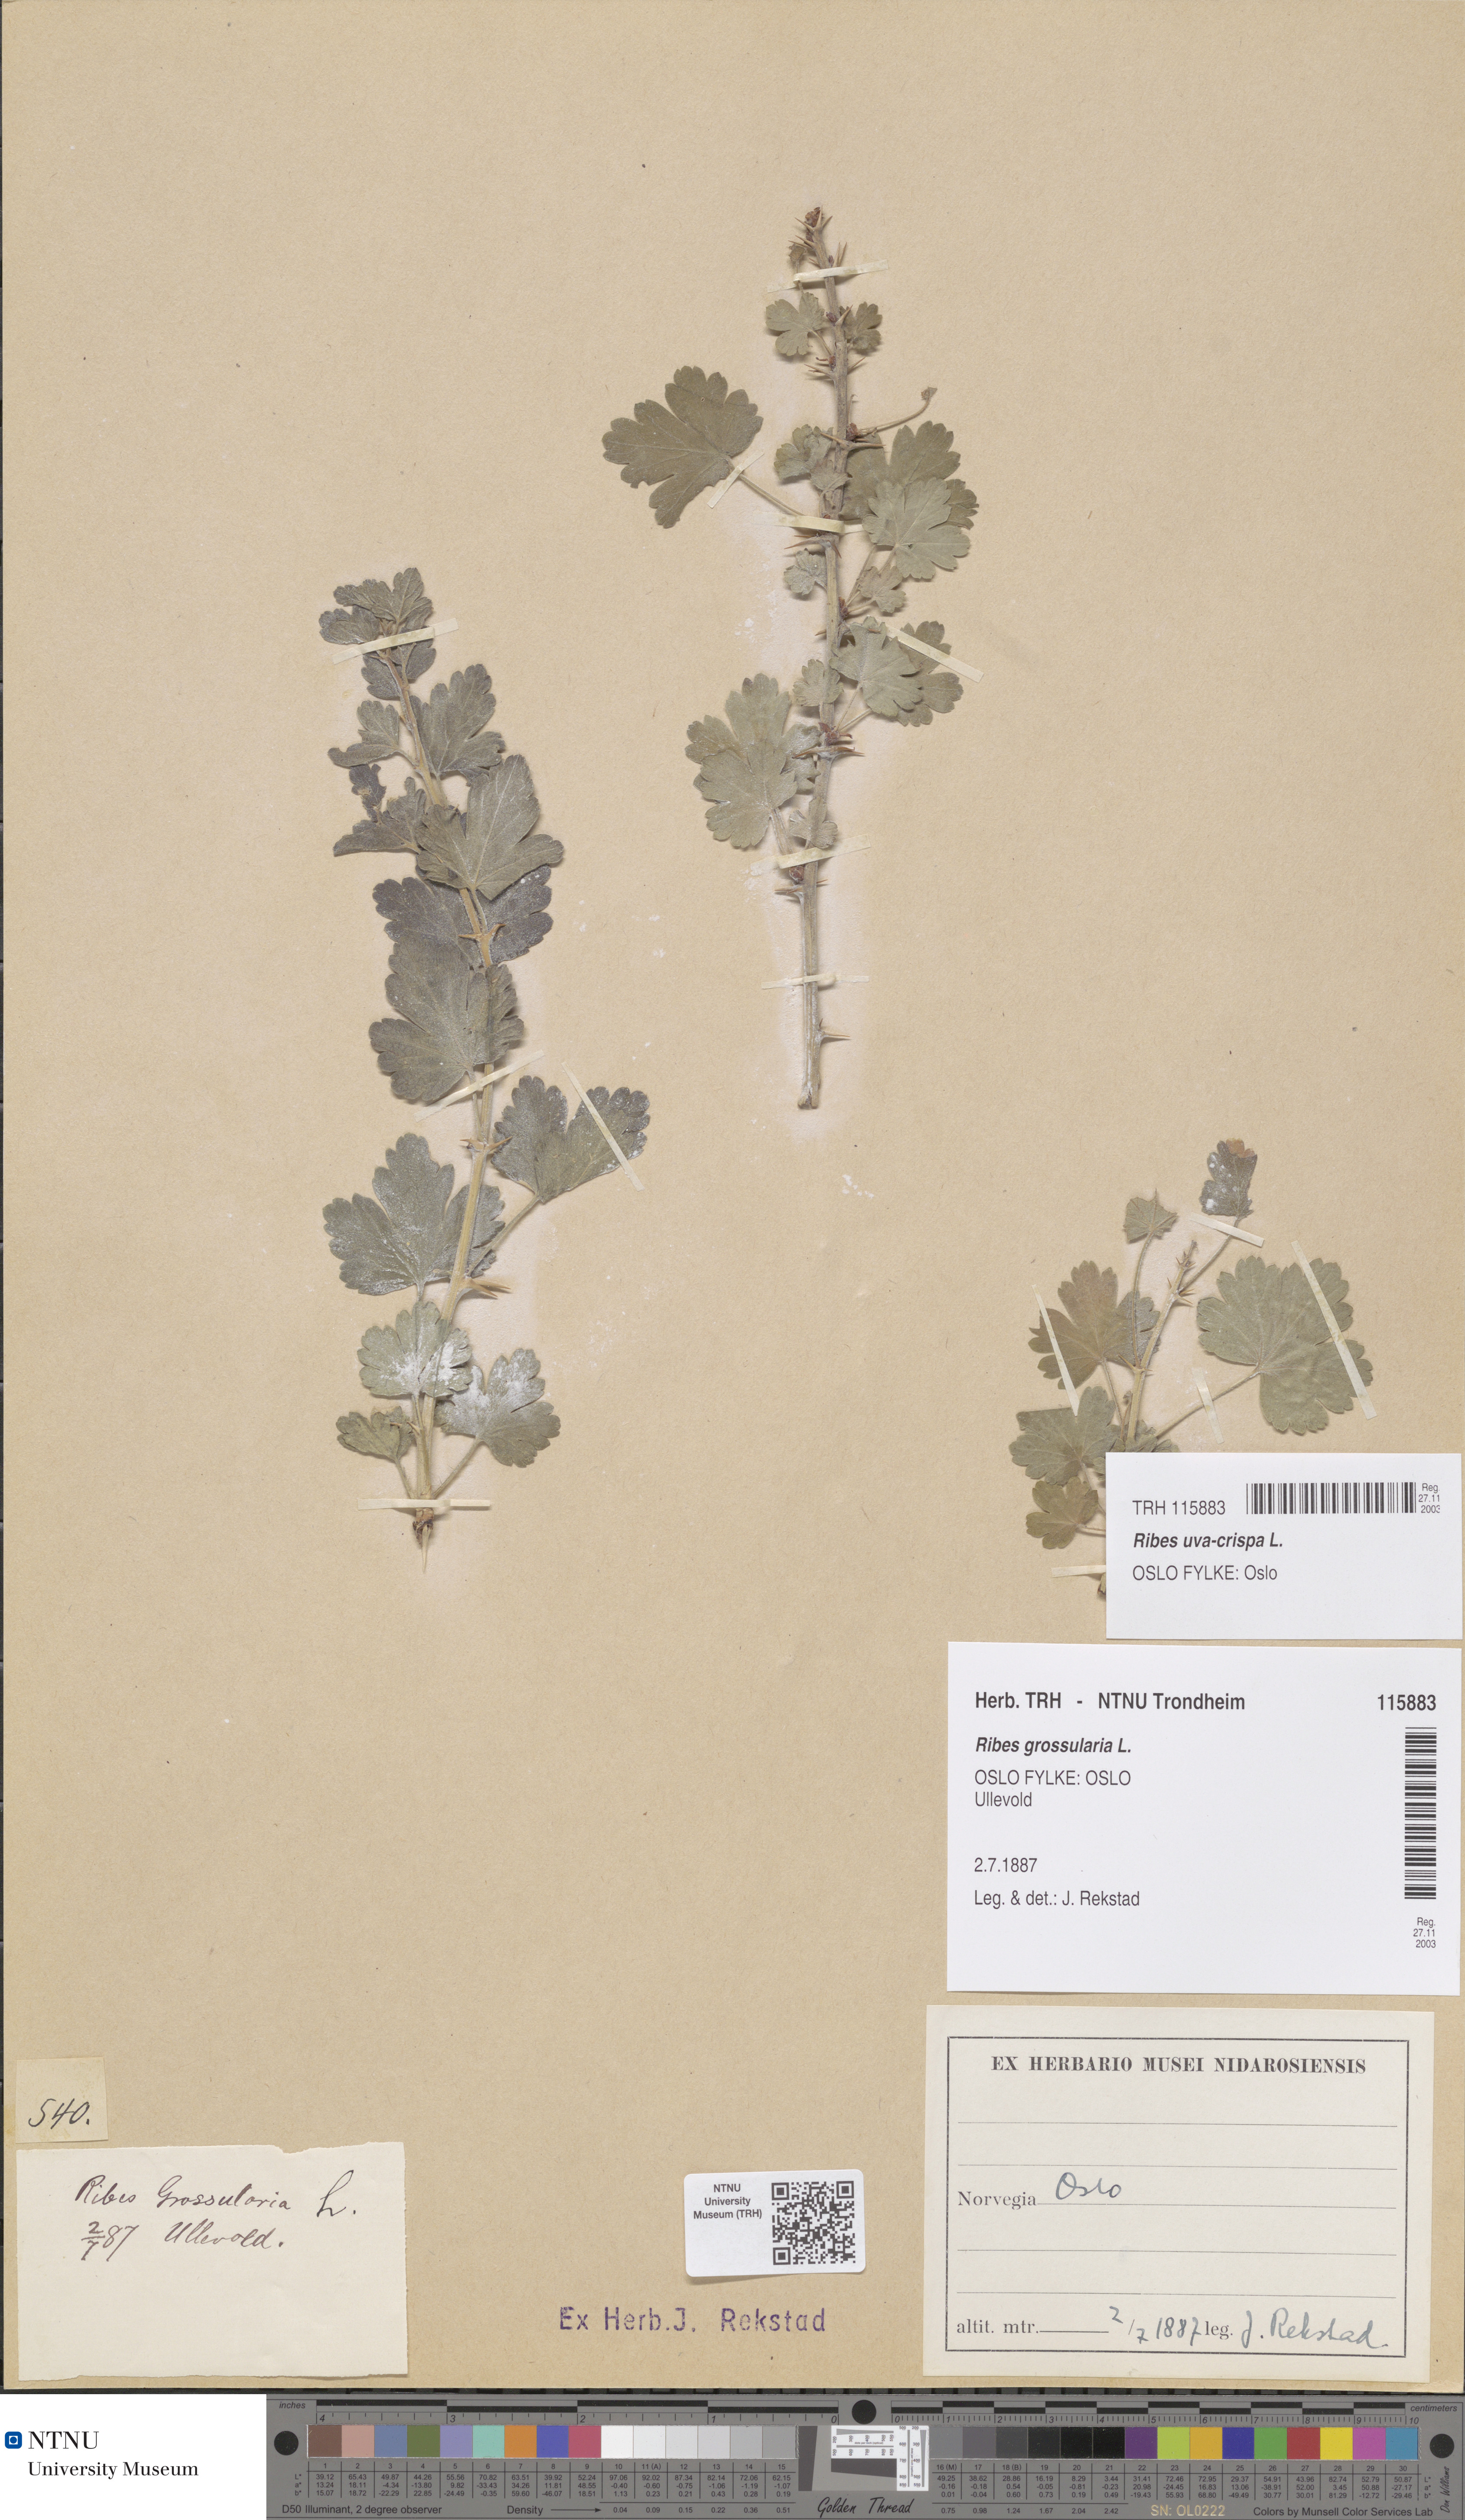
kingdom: Plantae
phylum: Tracheophyta
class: Magnoliopsida
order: Saxifragales
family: Grossulariaceae
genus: Ribes
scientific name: Ribes uva-crispa
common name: Gooseberry
